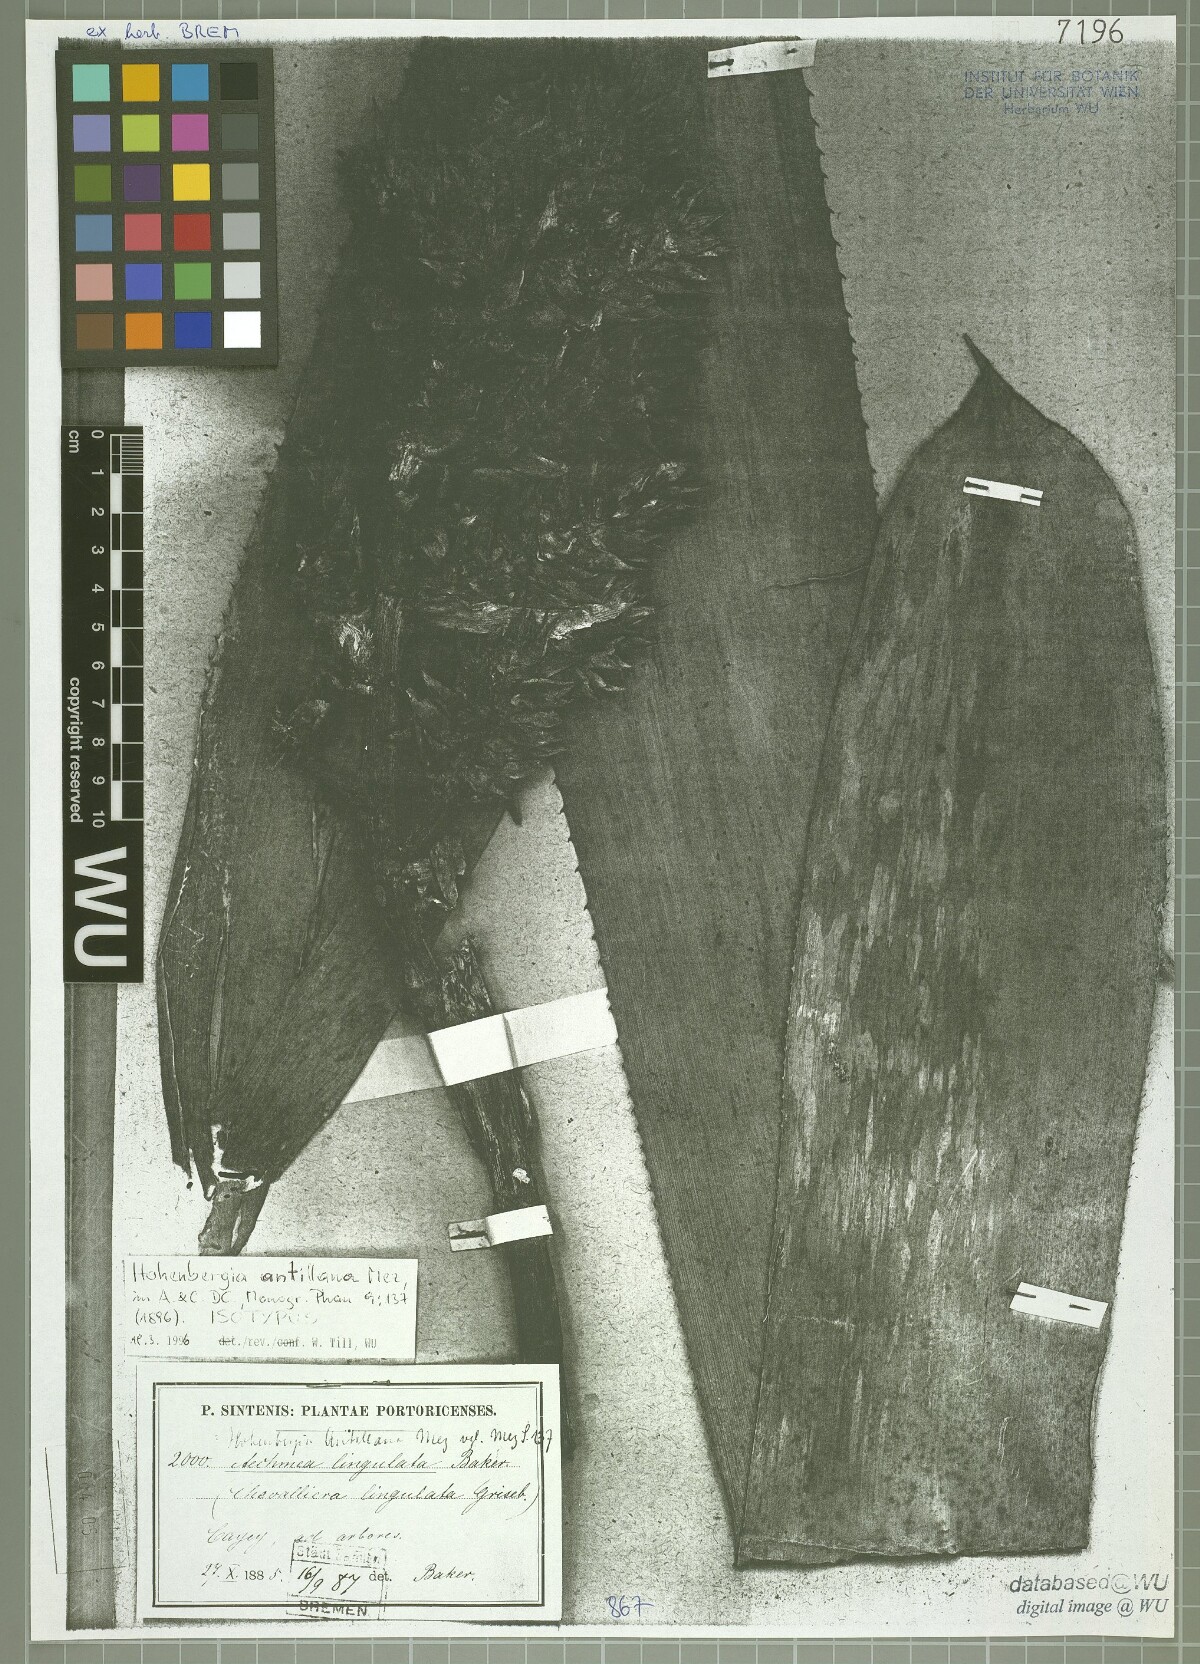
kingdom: Plantae
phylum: Tracheophyta
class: Liliopsida
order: Poales
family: Bromeliaceae
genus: Wittmackia
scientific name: Wittmackia antillana
